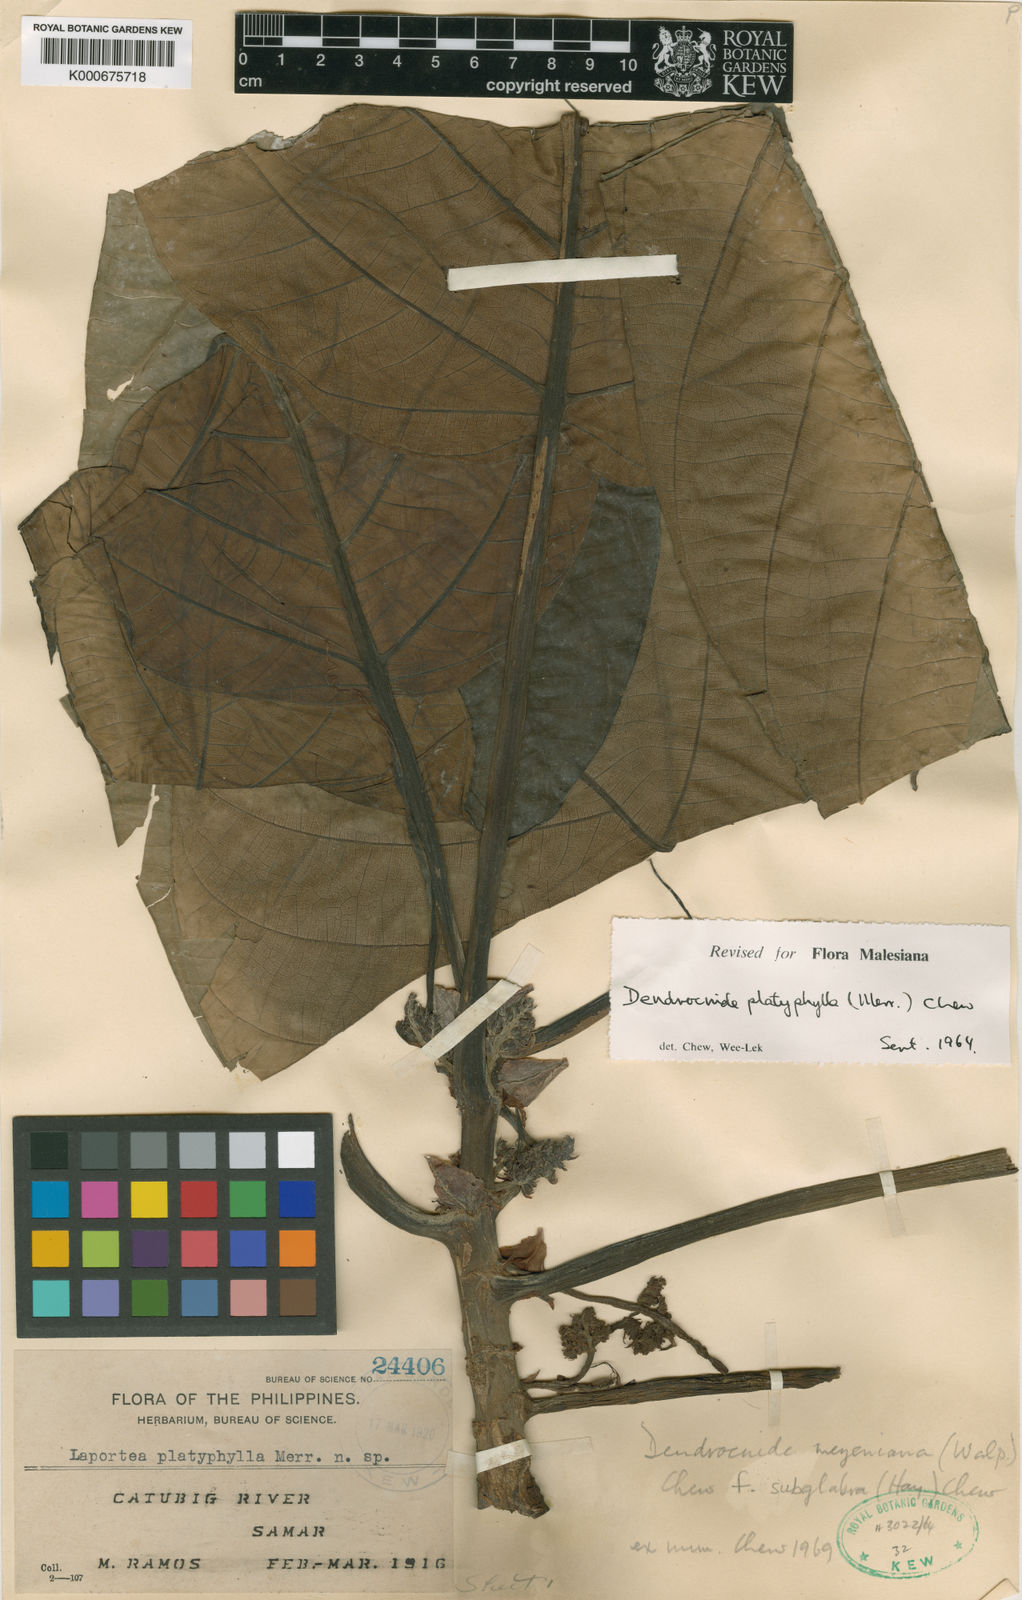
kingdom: Plantae
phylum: Tracheophyta
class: Magnoliopsida
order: Rosales
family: Urticaceae
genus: Dendrocnide
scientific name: Dendrocnide meyeniana
